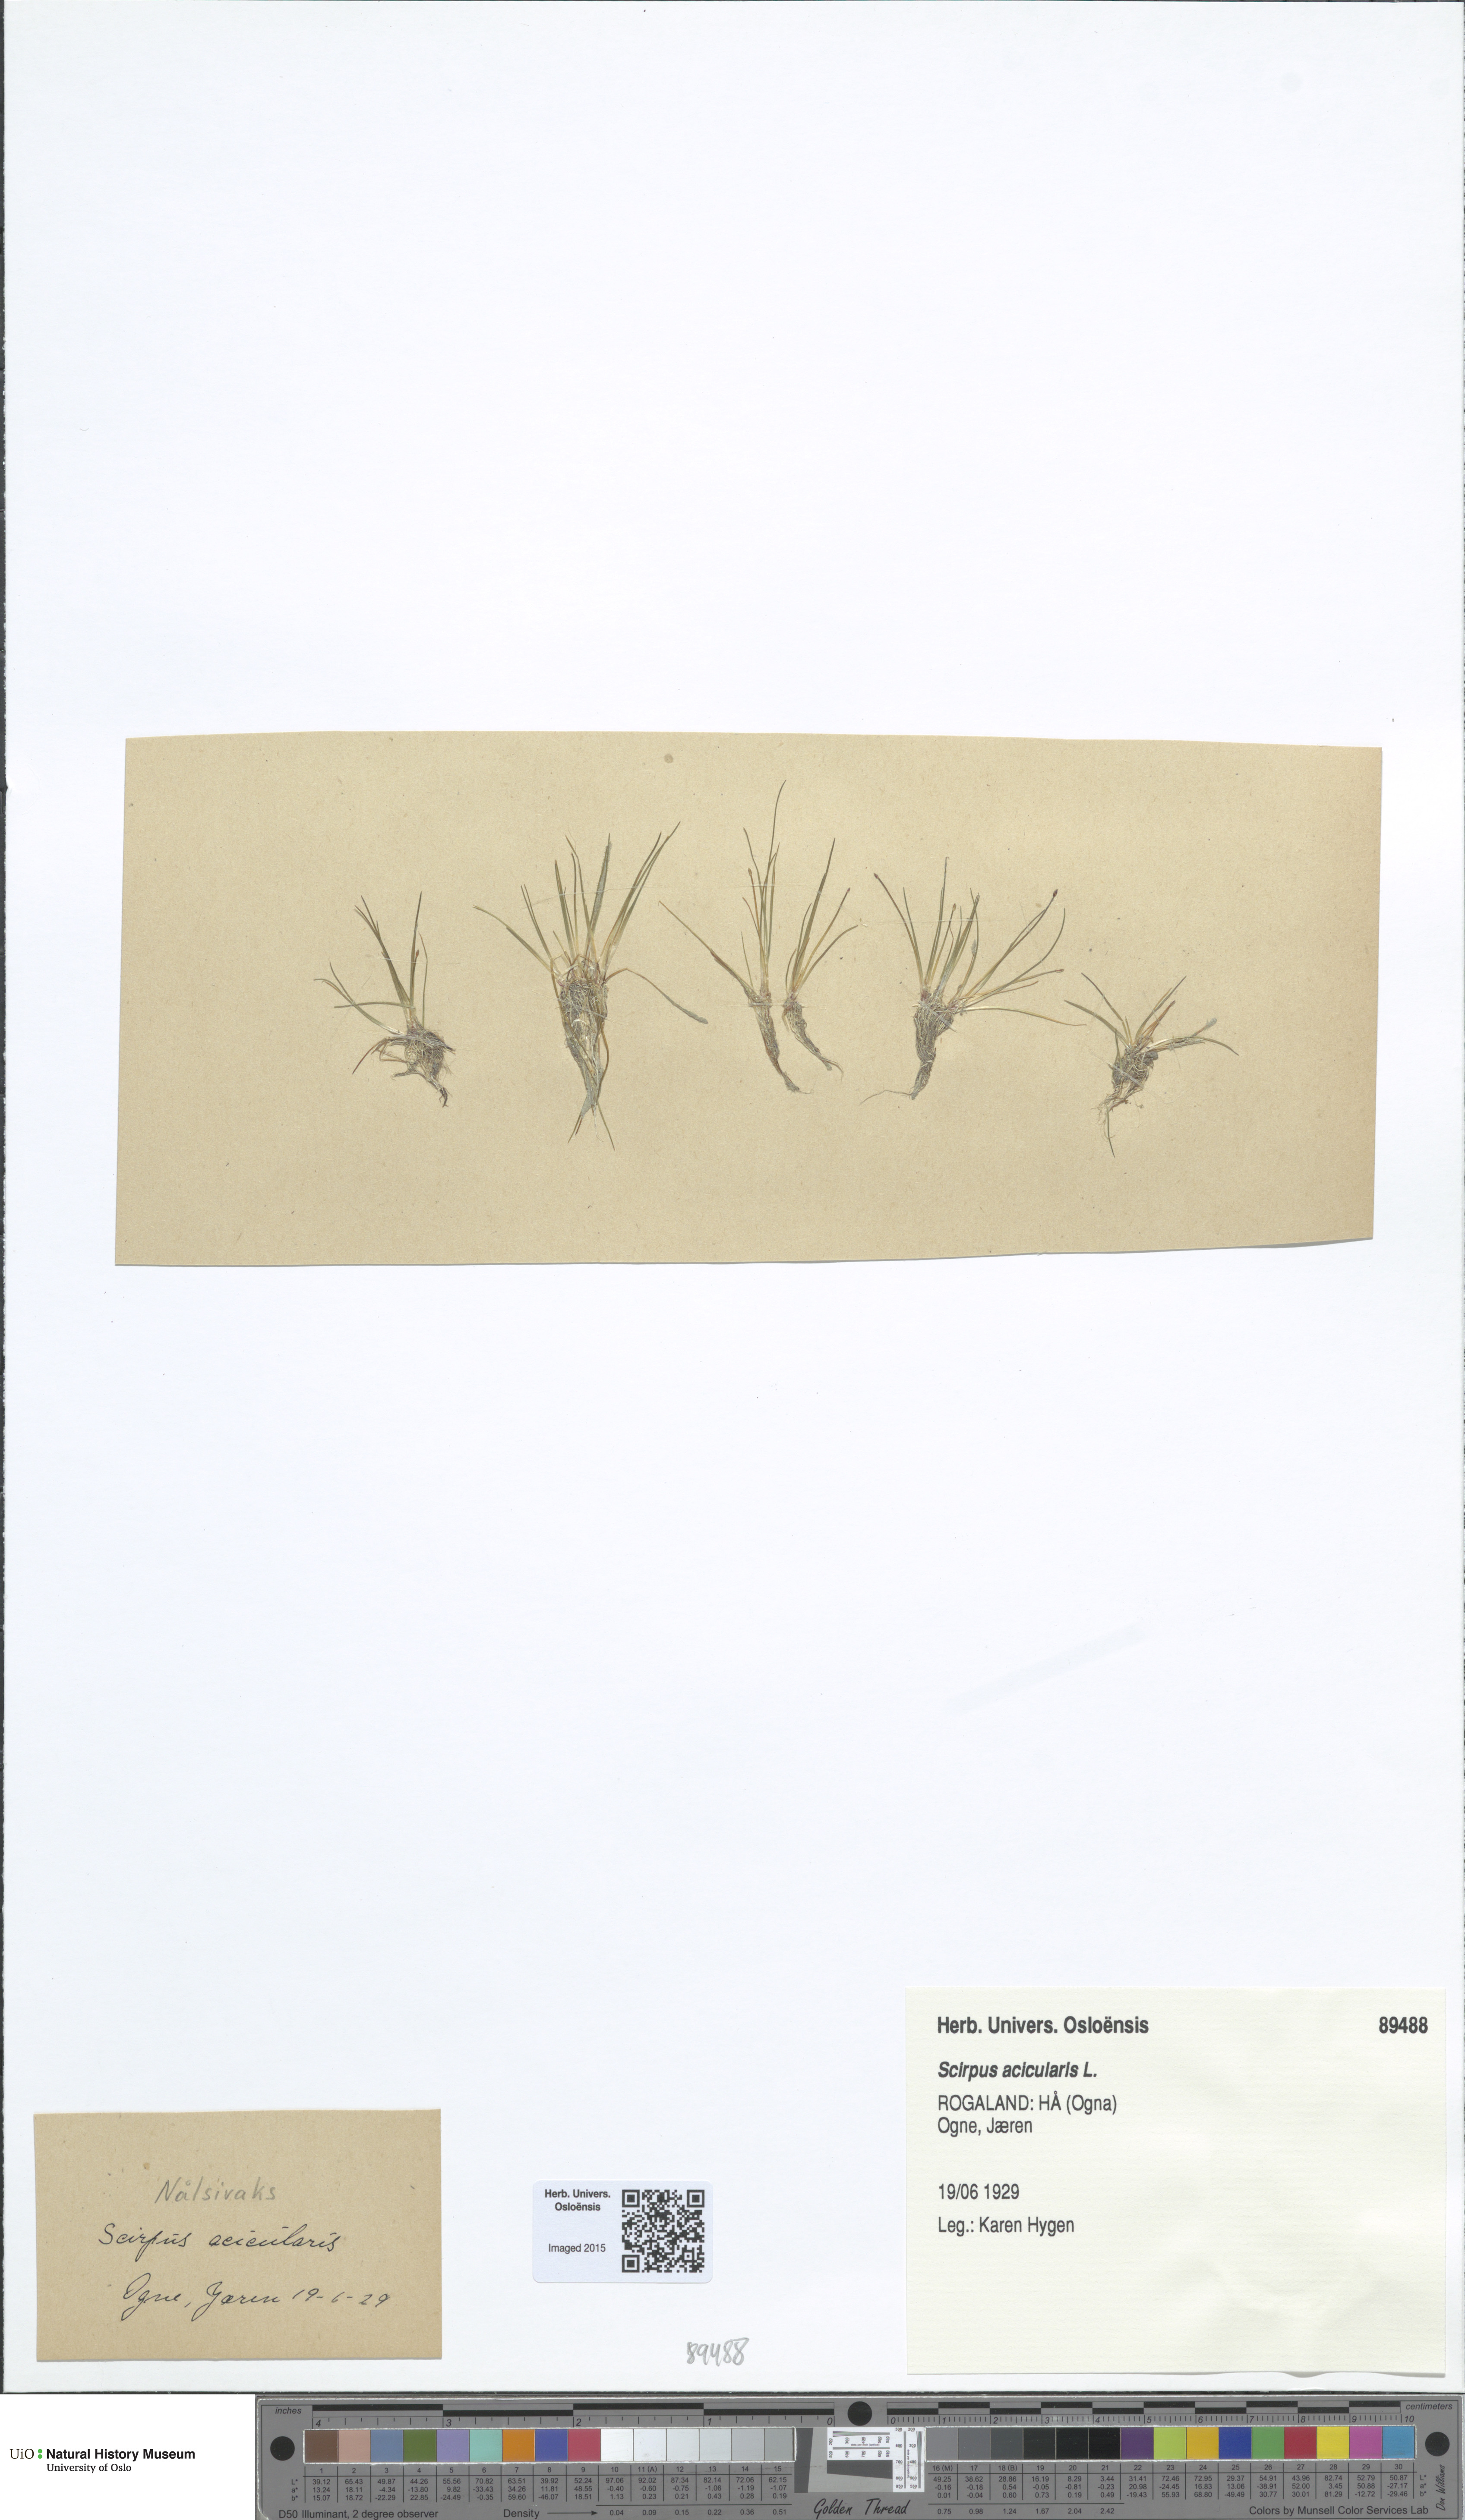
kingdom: Plantae
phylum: Tracheophyta
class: Liliopsida
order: Poales
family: Cyperaceae
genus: Eleocharis
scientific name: Eleocharis acicularis
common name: Needle spike-rush
